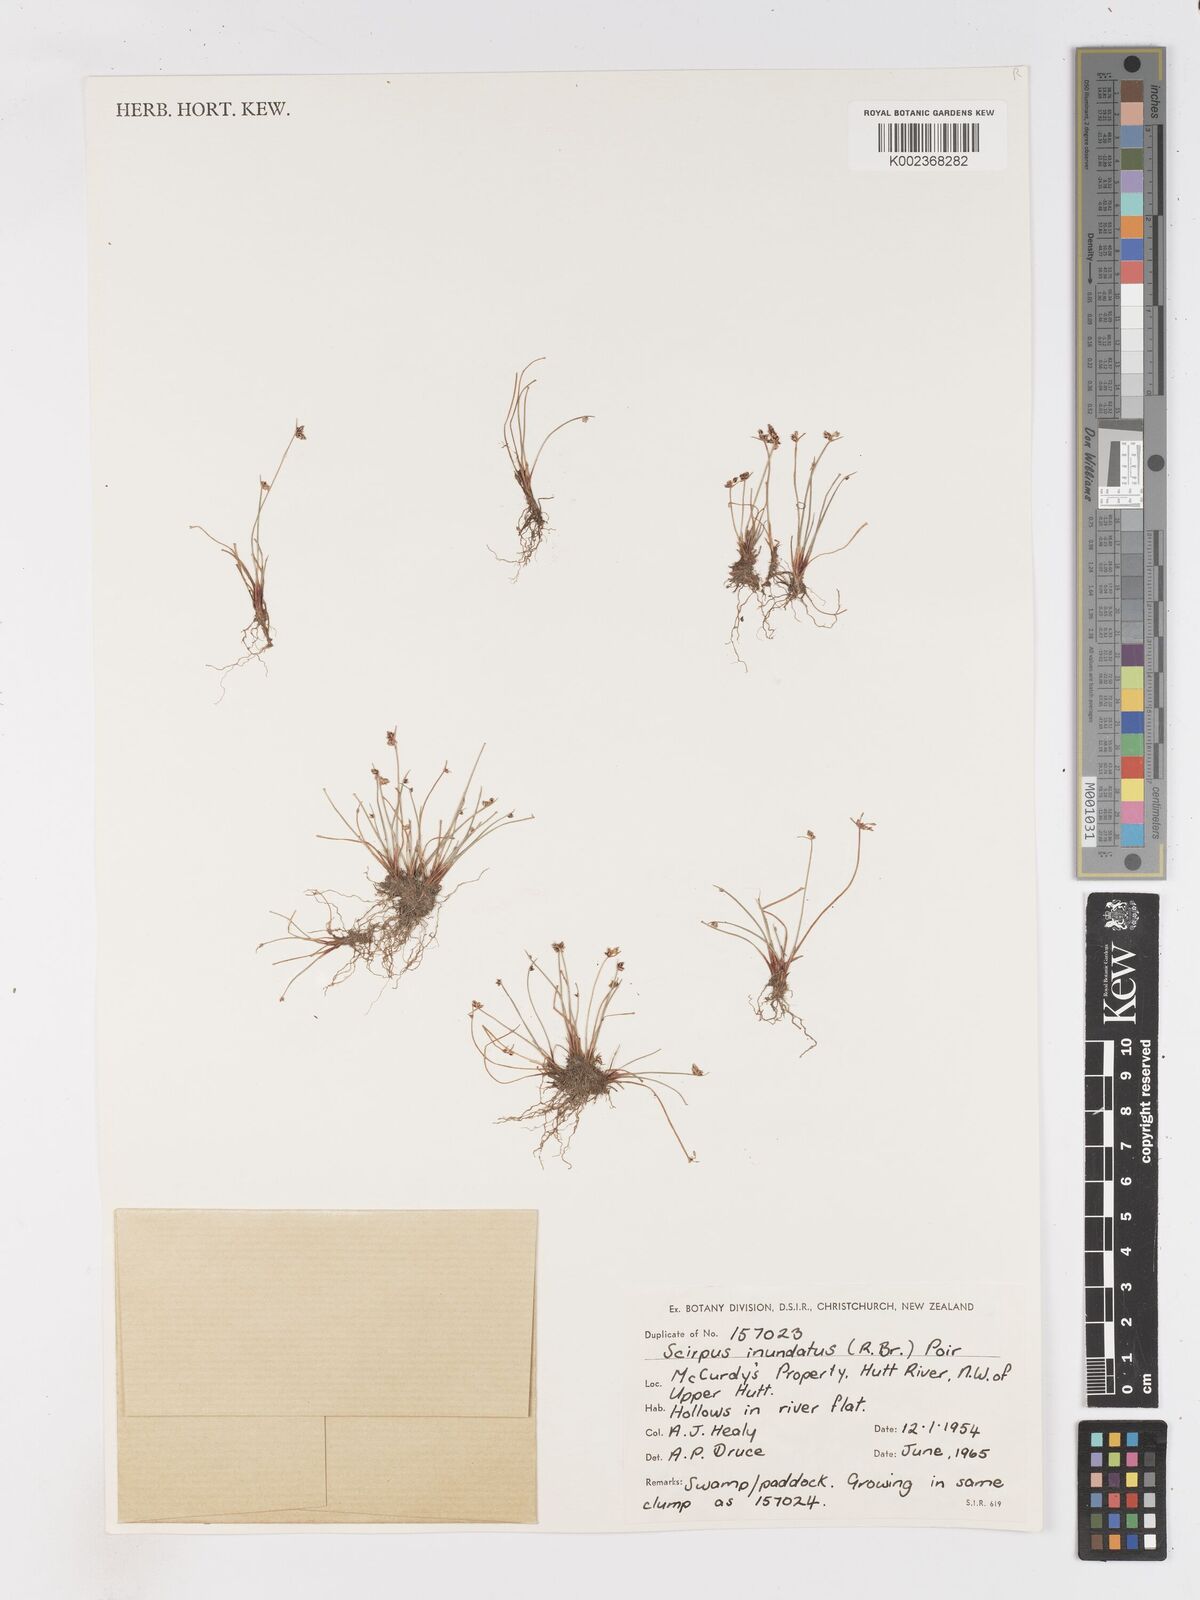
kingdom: Plantae
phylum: Tracheophyta
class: Liliopsida
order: Poales
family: Cyperaceae
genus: Isolepis
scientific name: Isolepis inundata
